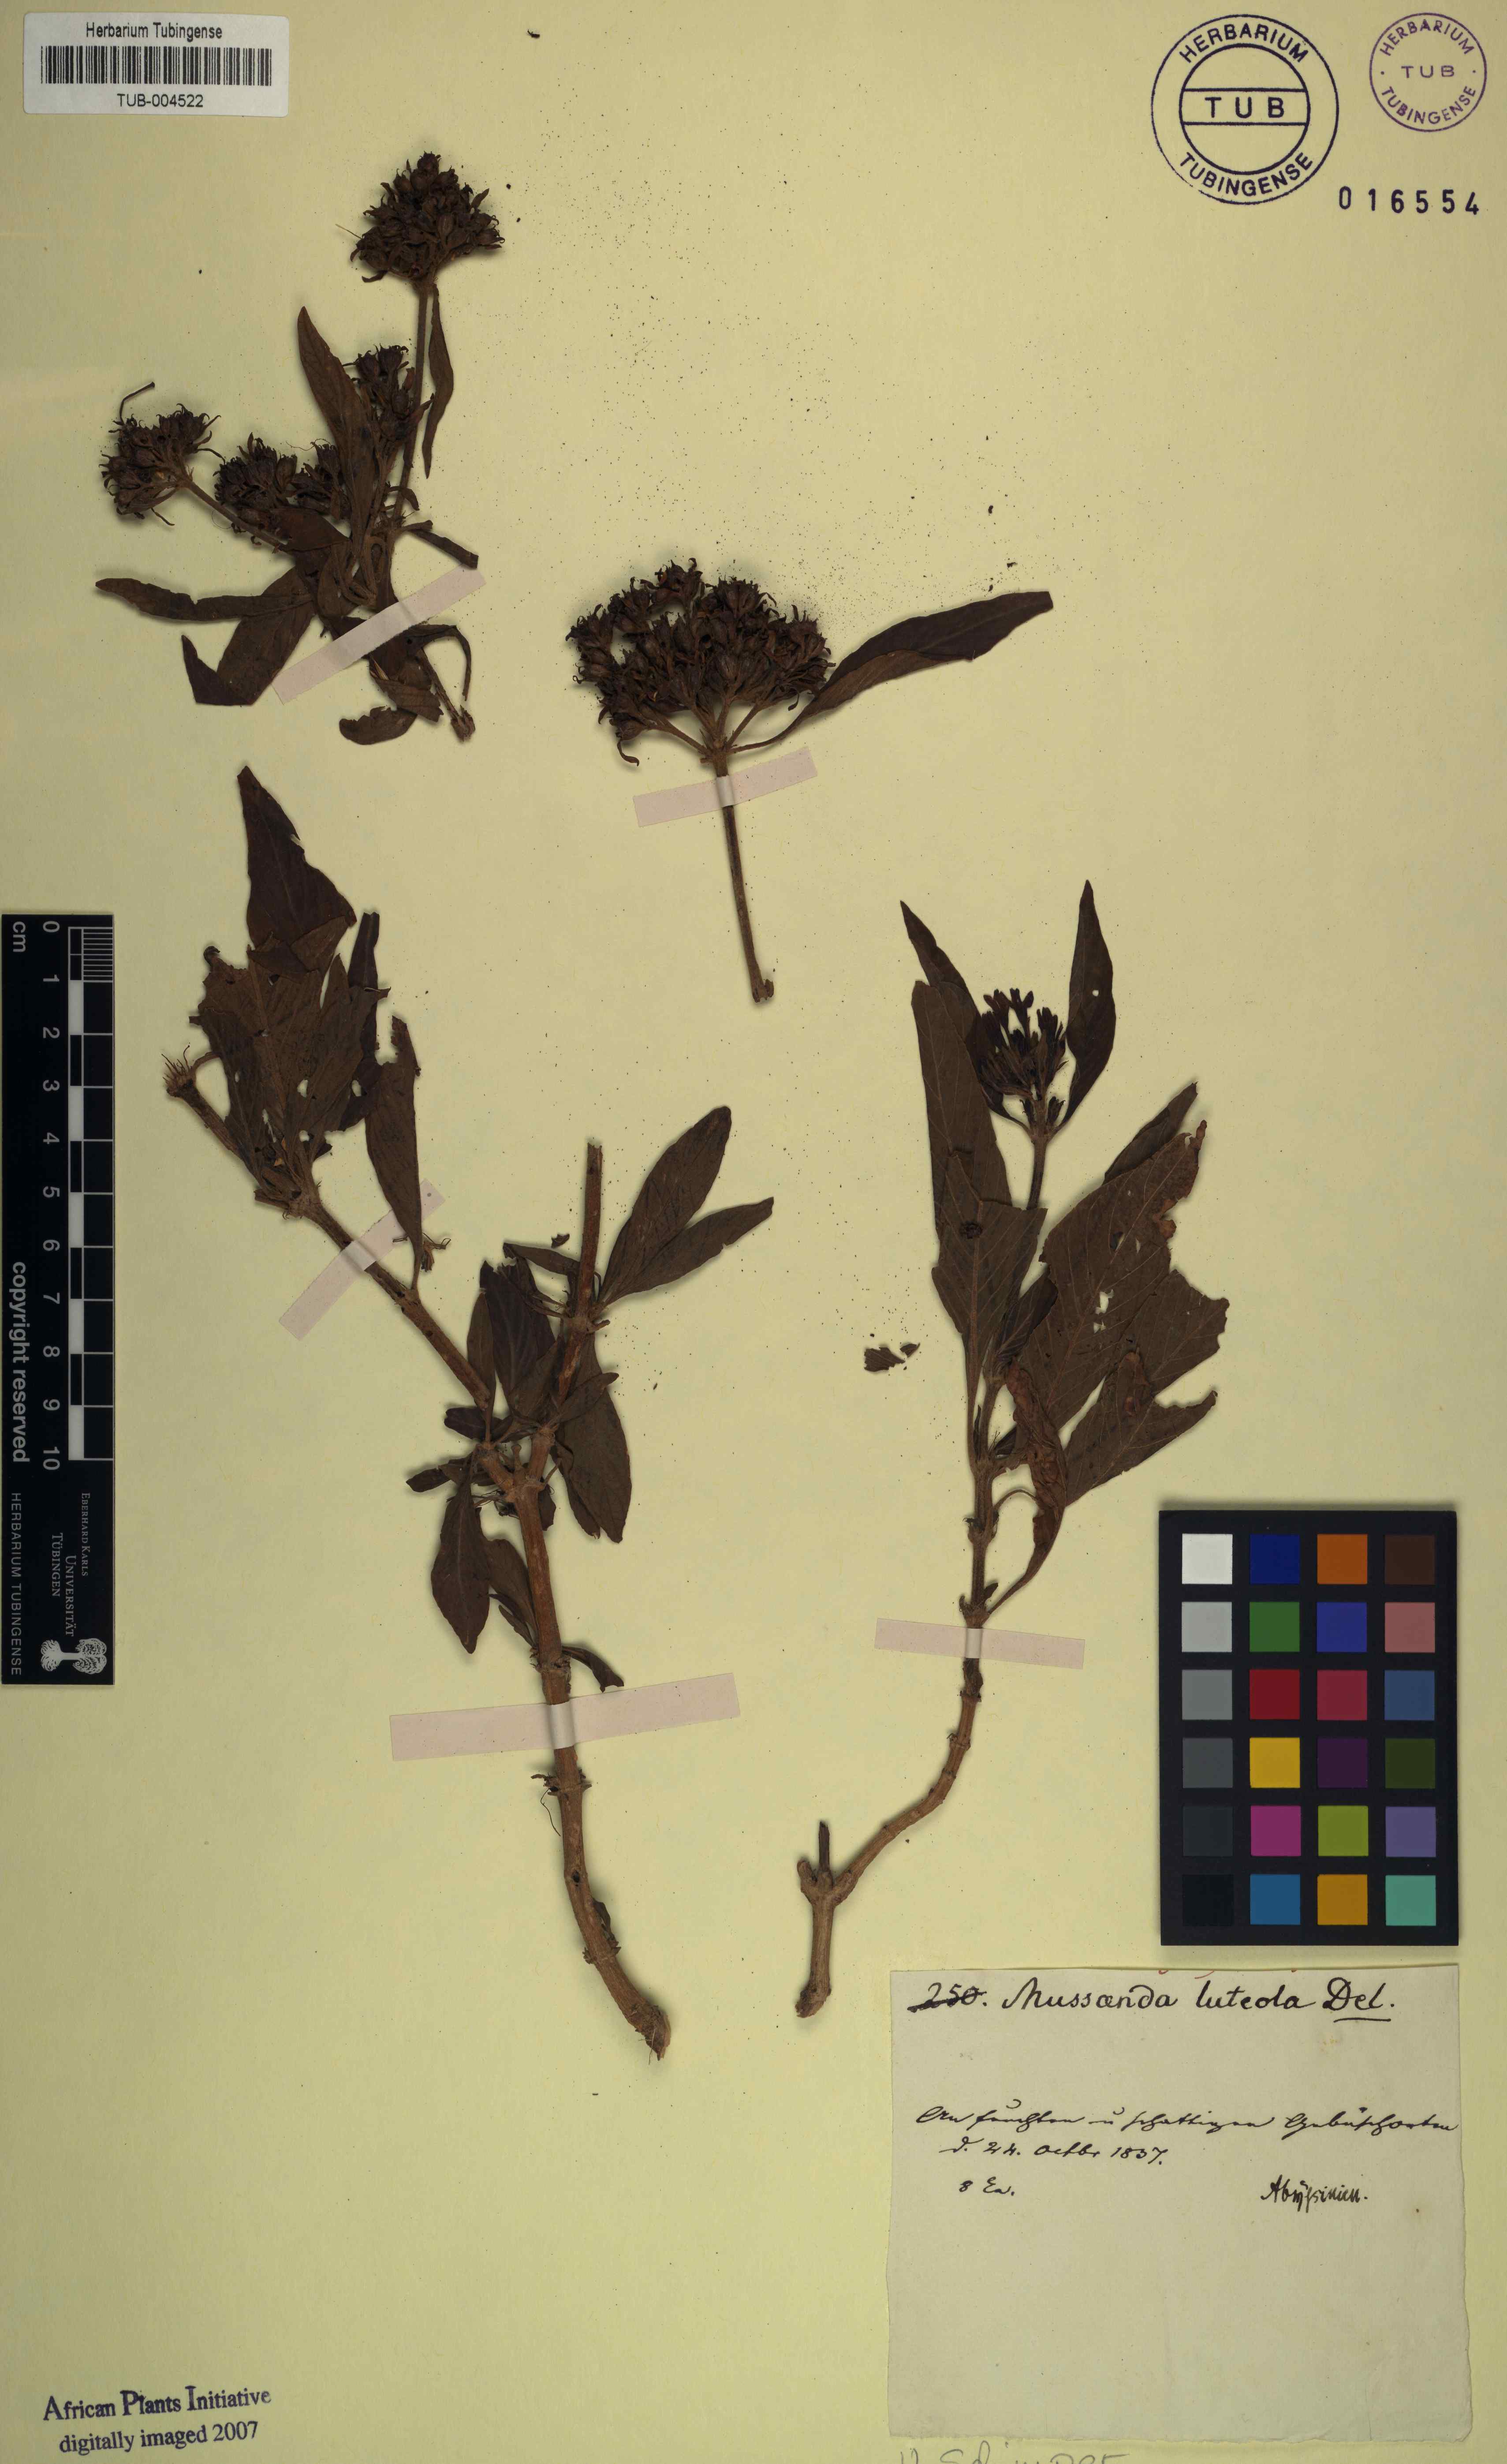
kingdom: Plantae
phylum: Tracheophyta
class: Magnoliopsida
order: Gentianales
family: Rubiaceae
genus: Pentas
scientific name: Pentas lanceolata
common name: Egyptian starcluster
